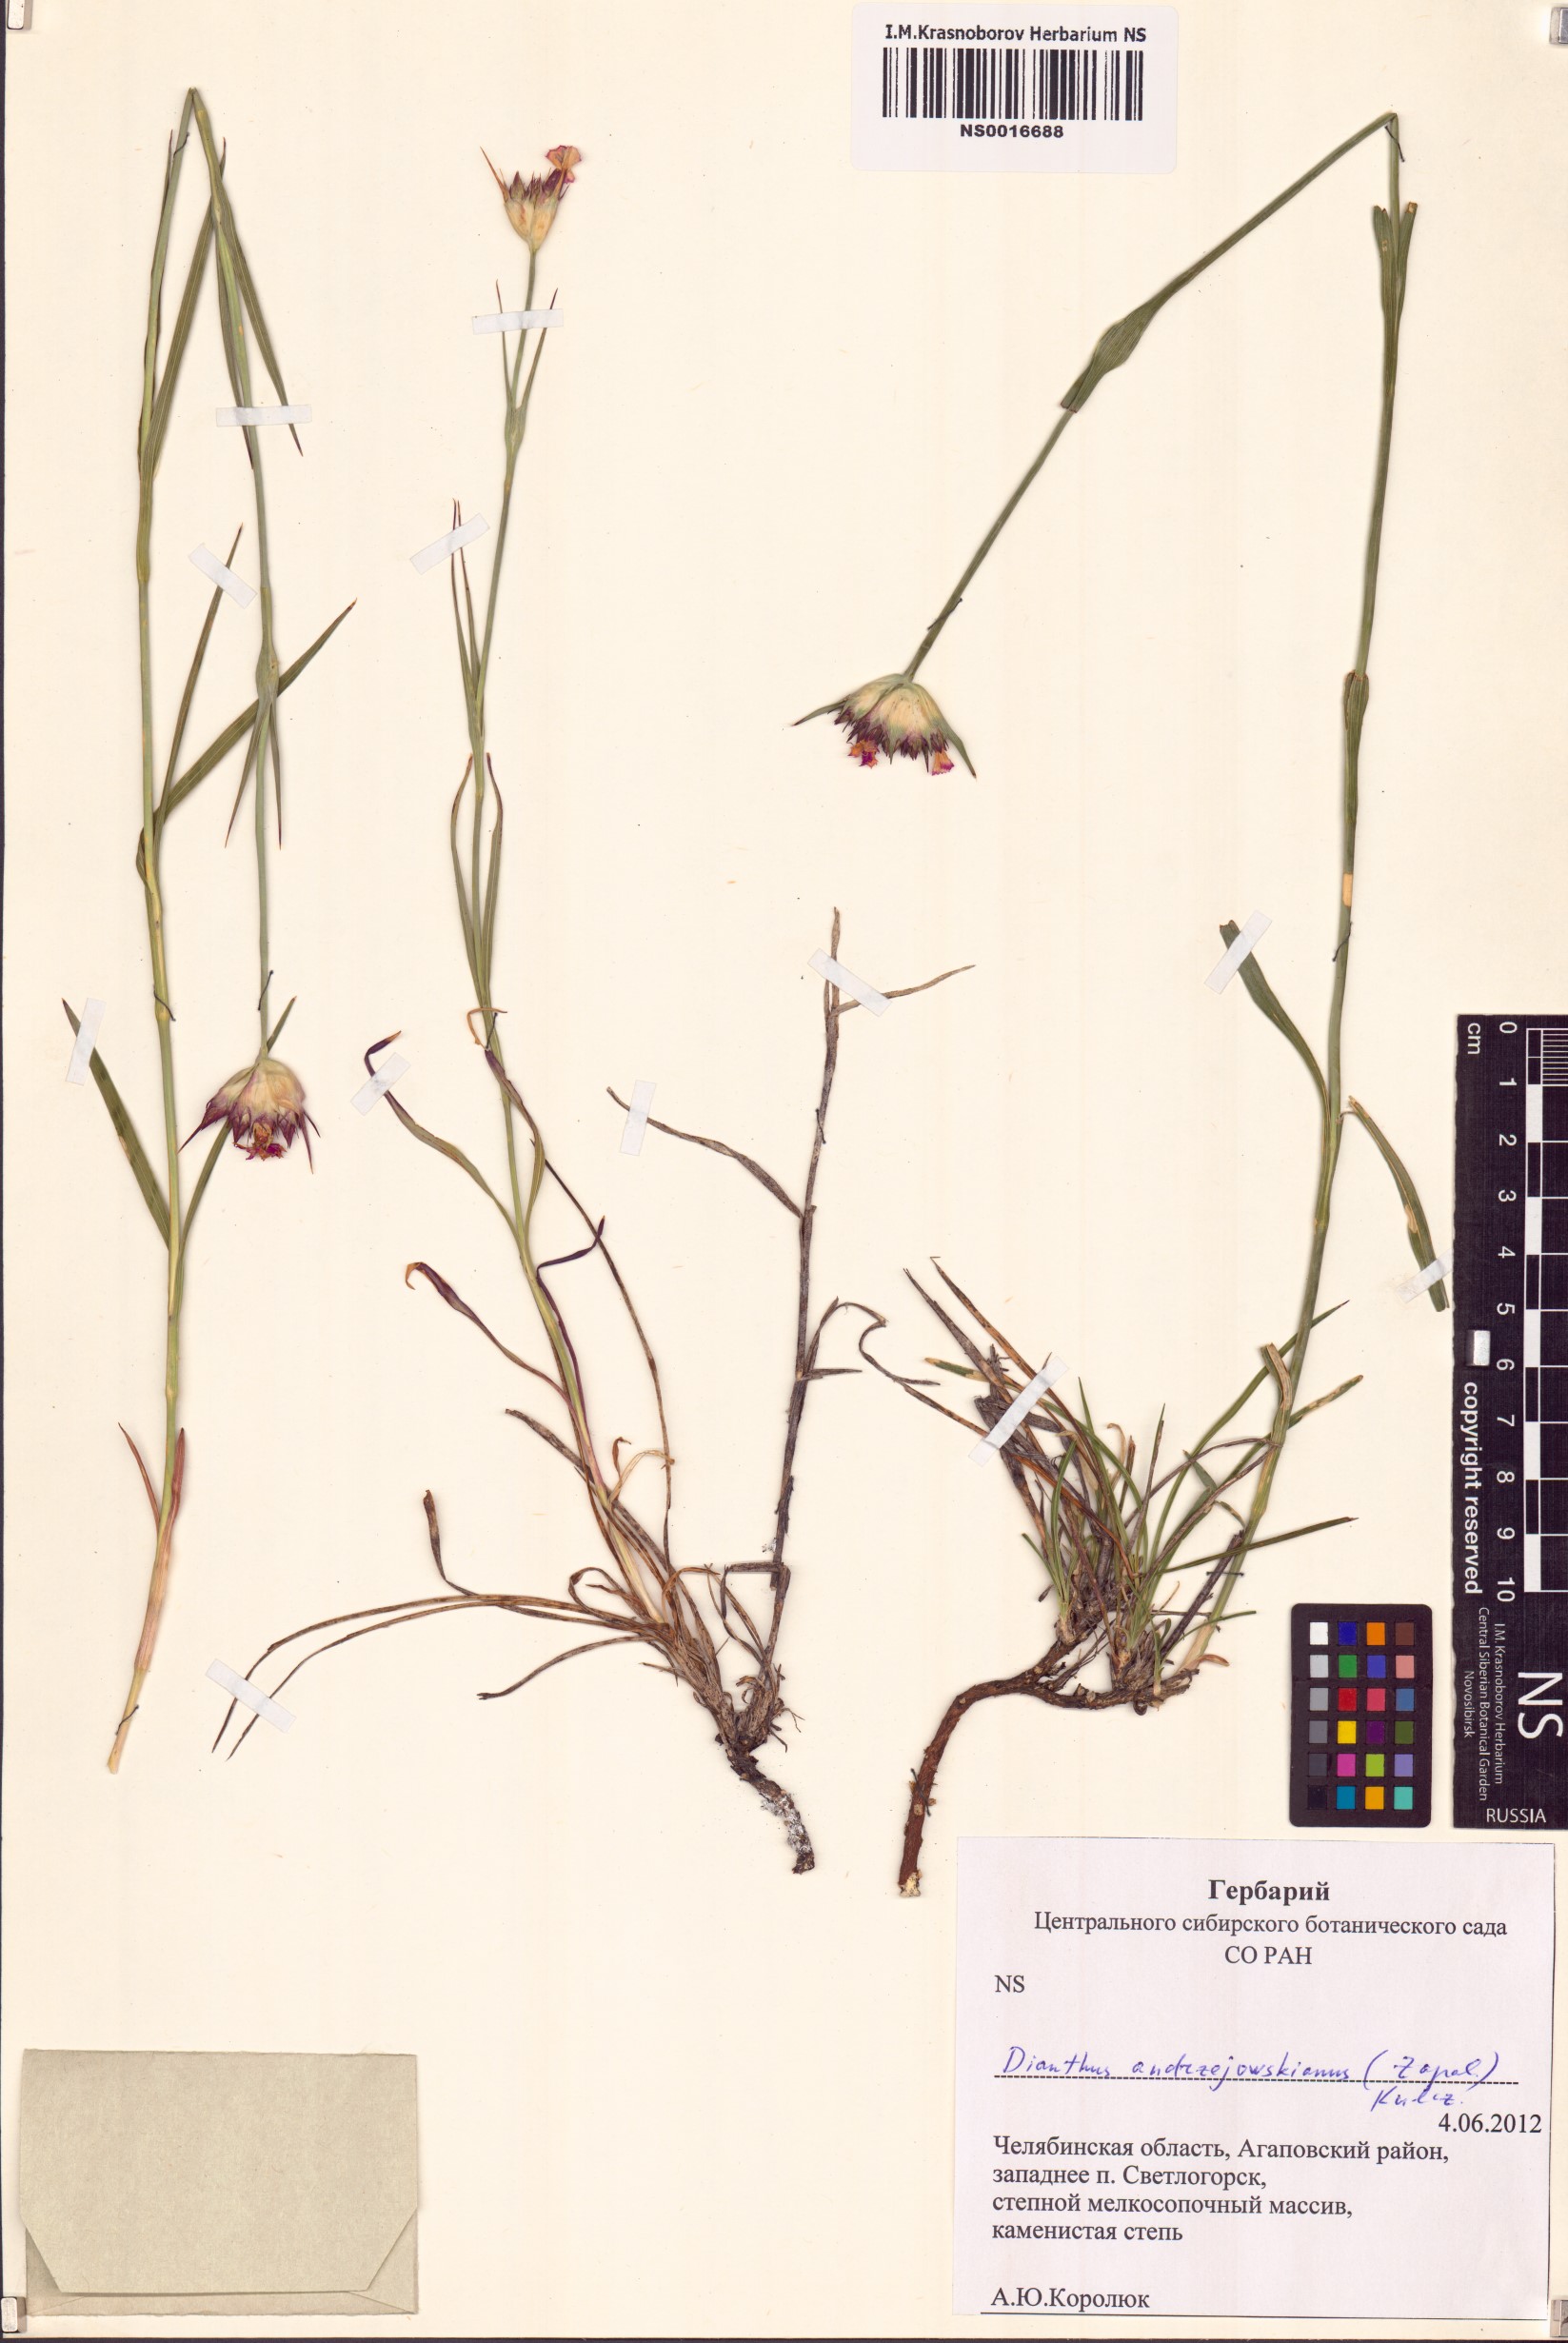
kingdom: Plantae
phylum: Tracheophyta
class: Magnoliopsida
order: Caryophyllales
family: Caryophyllaceae
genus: Dianthus
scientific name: Dianthus capitatus
